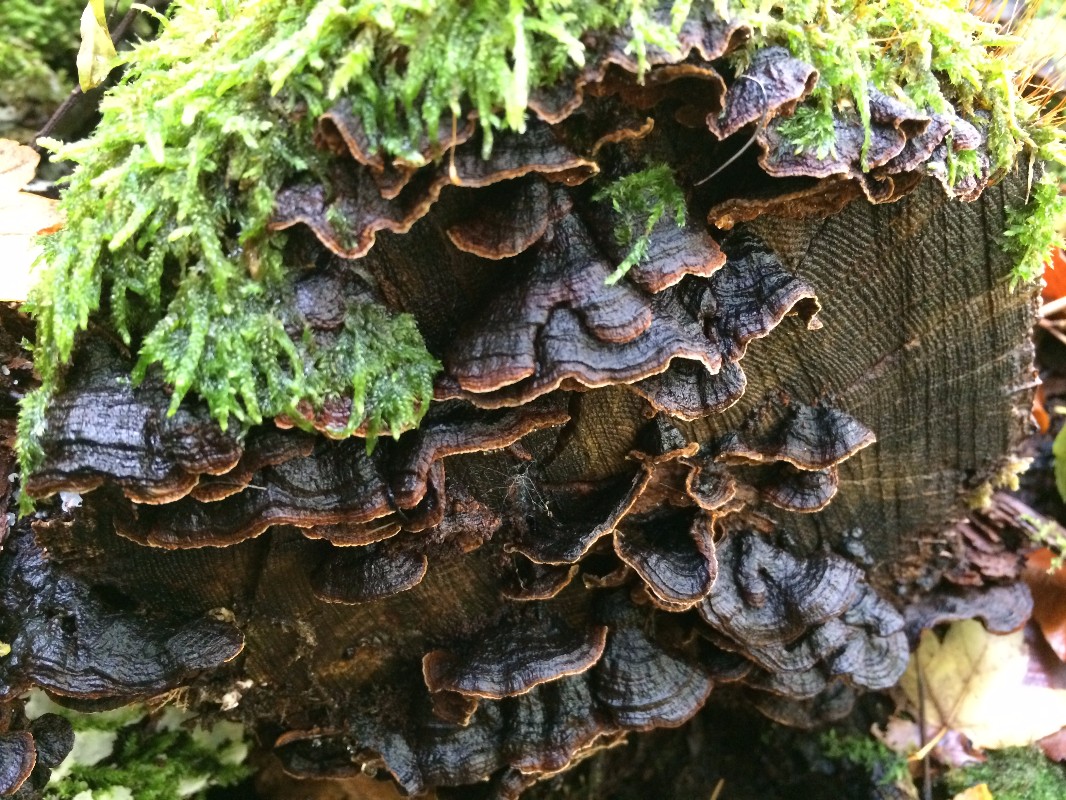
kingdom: Fungi
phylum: Basidiomycota
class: Agaricomycetes
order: Hymenochaetales
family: Hymenochaetaceae
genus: Hymenochaete
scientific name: Hymenochaete rubiginosa
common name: stiv ruslædersvamp
